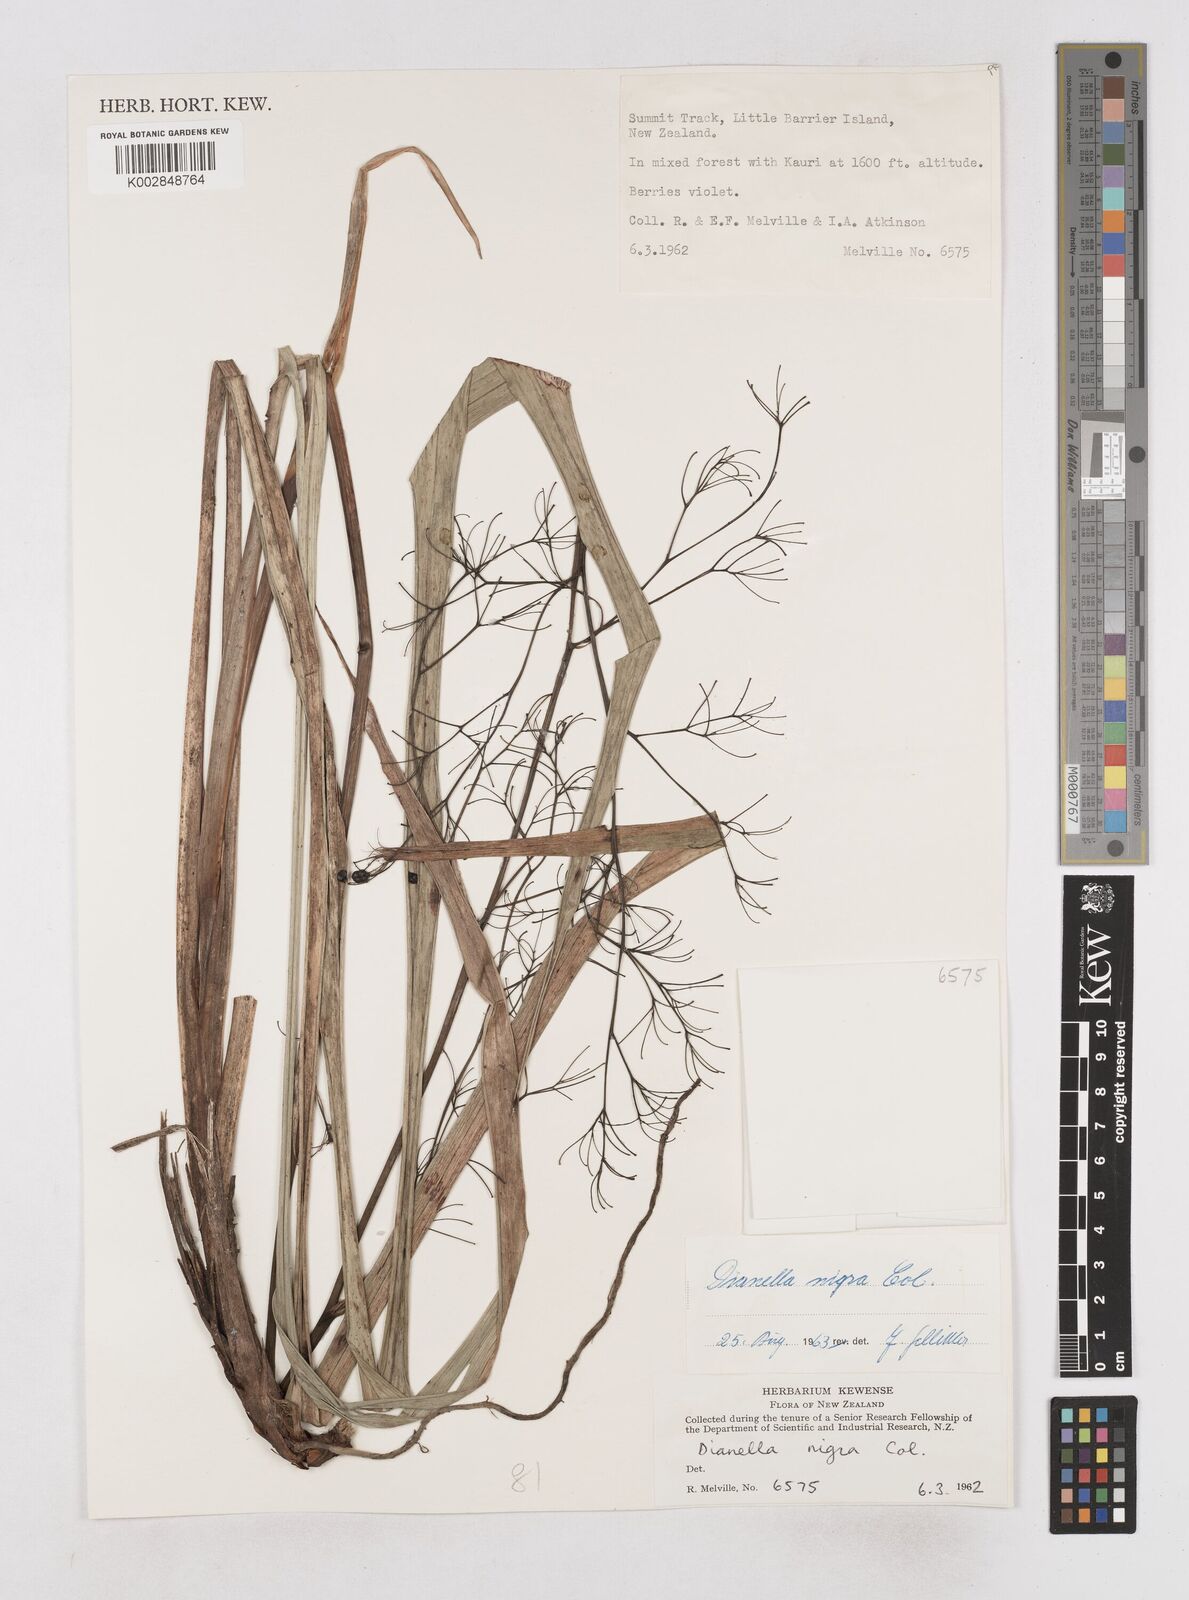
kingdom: Plantae
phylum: Tracheophyta
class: Liliopsida
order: Asparagales
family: Asphodelaceae
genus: Dianella
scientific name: Dianella nigra
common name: New zealand-blueberry
